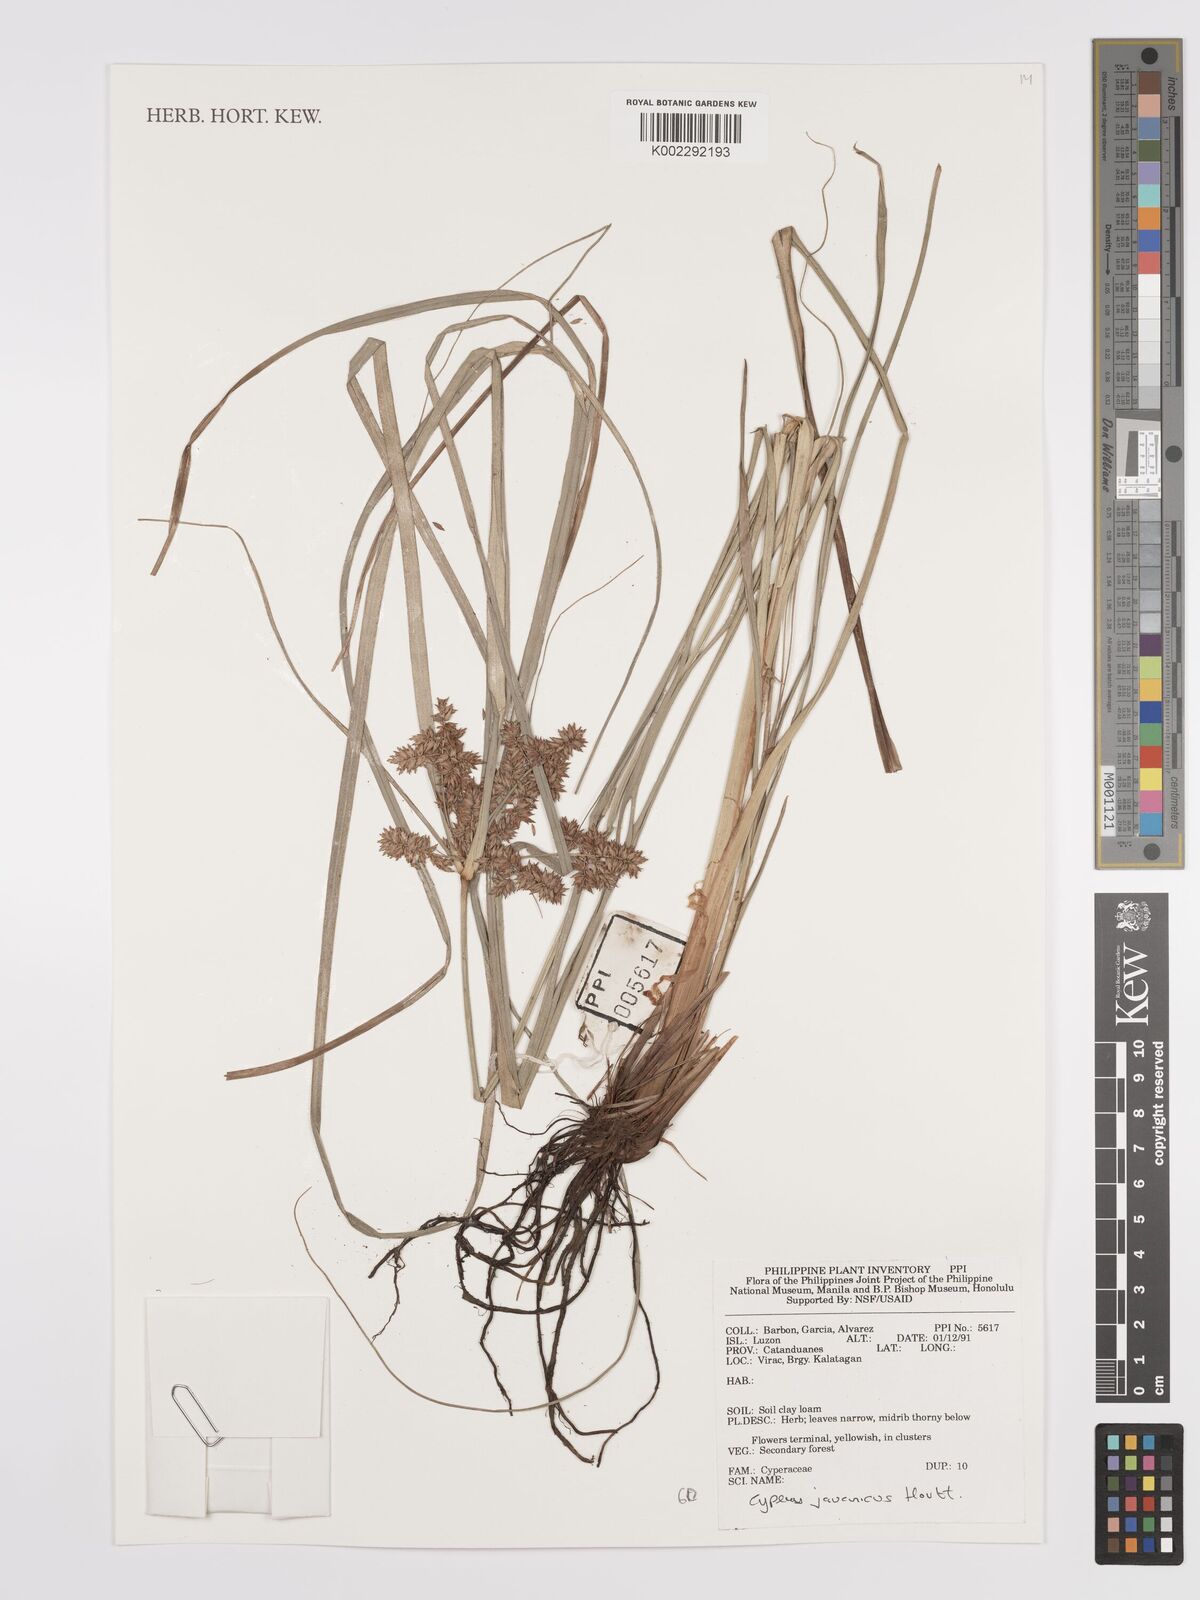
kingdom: Plantae
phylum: Tracheophyta
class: Liliopsida
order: Poales
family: Cyperaceae
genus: Cyperus
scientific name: Cyperus javanicus
